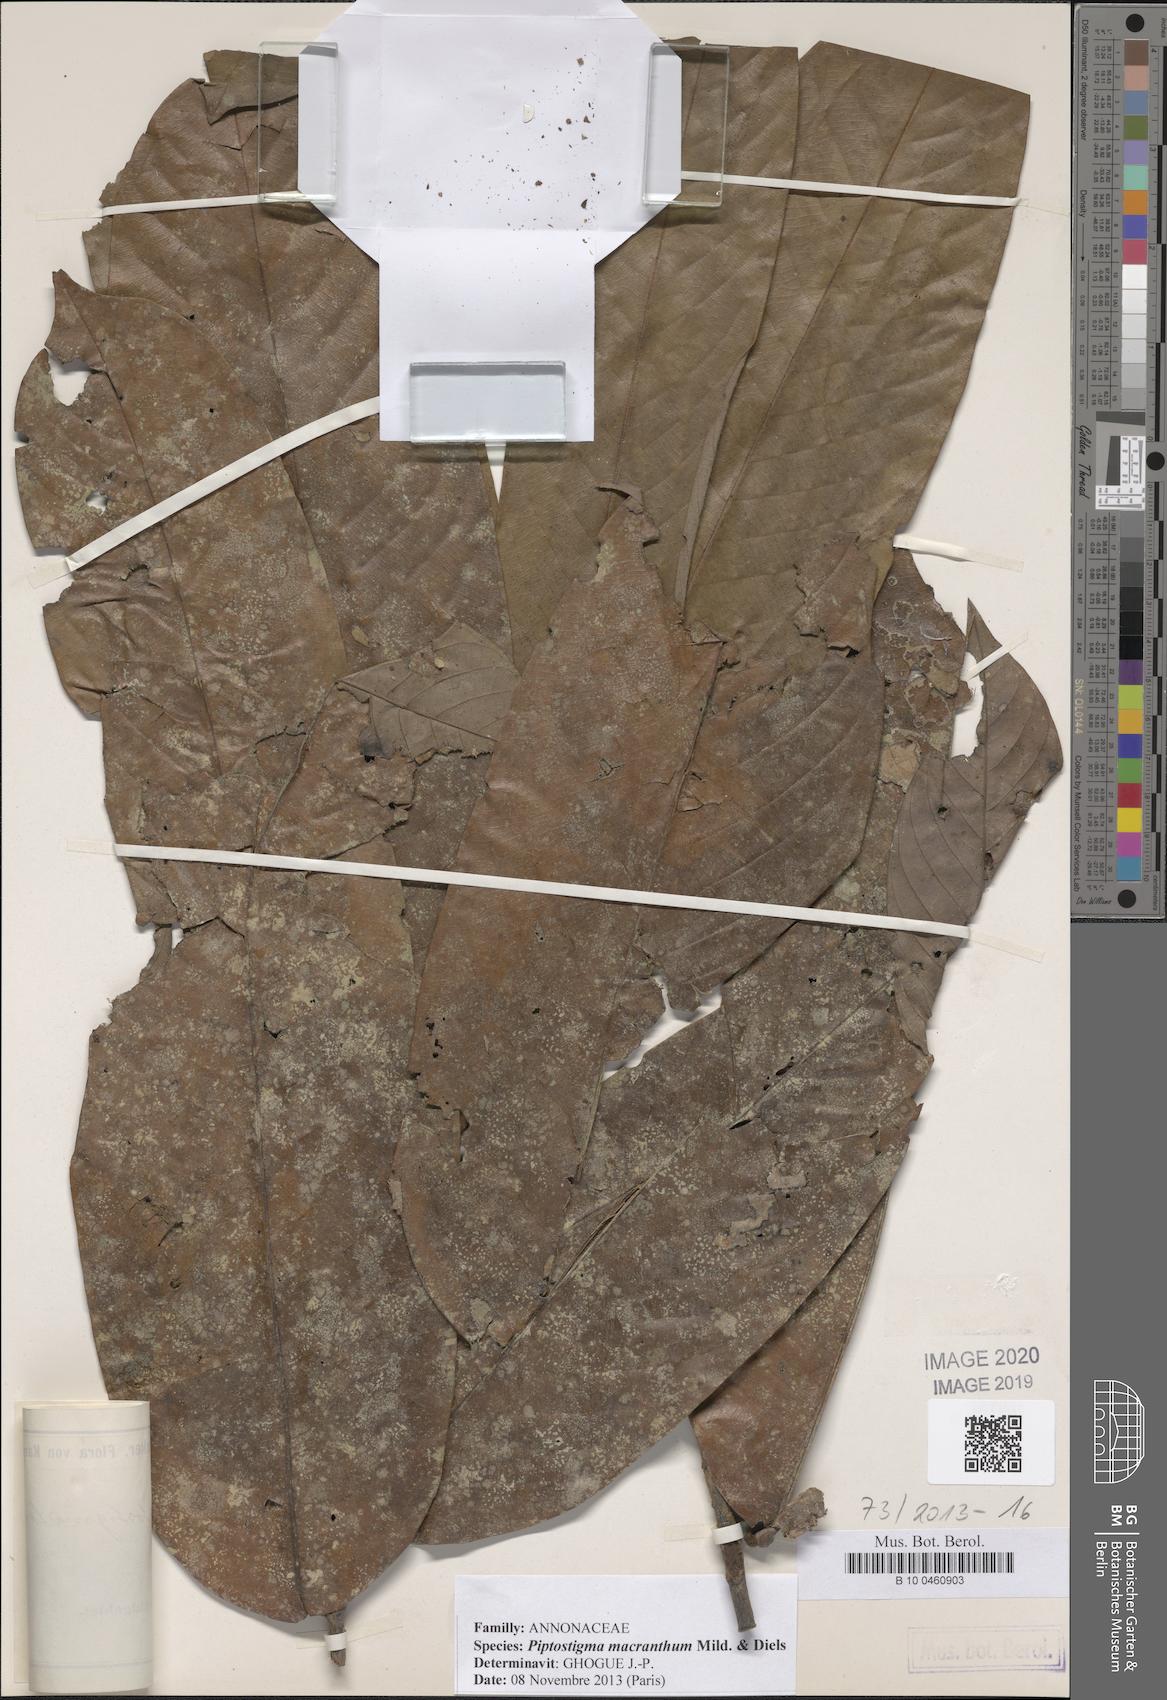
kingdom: Plantae
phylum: Tracheophyta
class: Magnoliopsida
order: Magnoliales
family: Annonaceae
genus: Piptostigma
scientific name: Piptostigma macranthum
